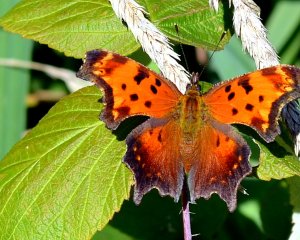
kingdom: Animalia
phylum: Arthropoda
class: Insecta
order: Lepidoptera
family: Nymphalidae
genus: Polygonia
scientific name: Polygonia progne
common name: Gray Comma
